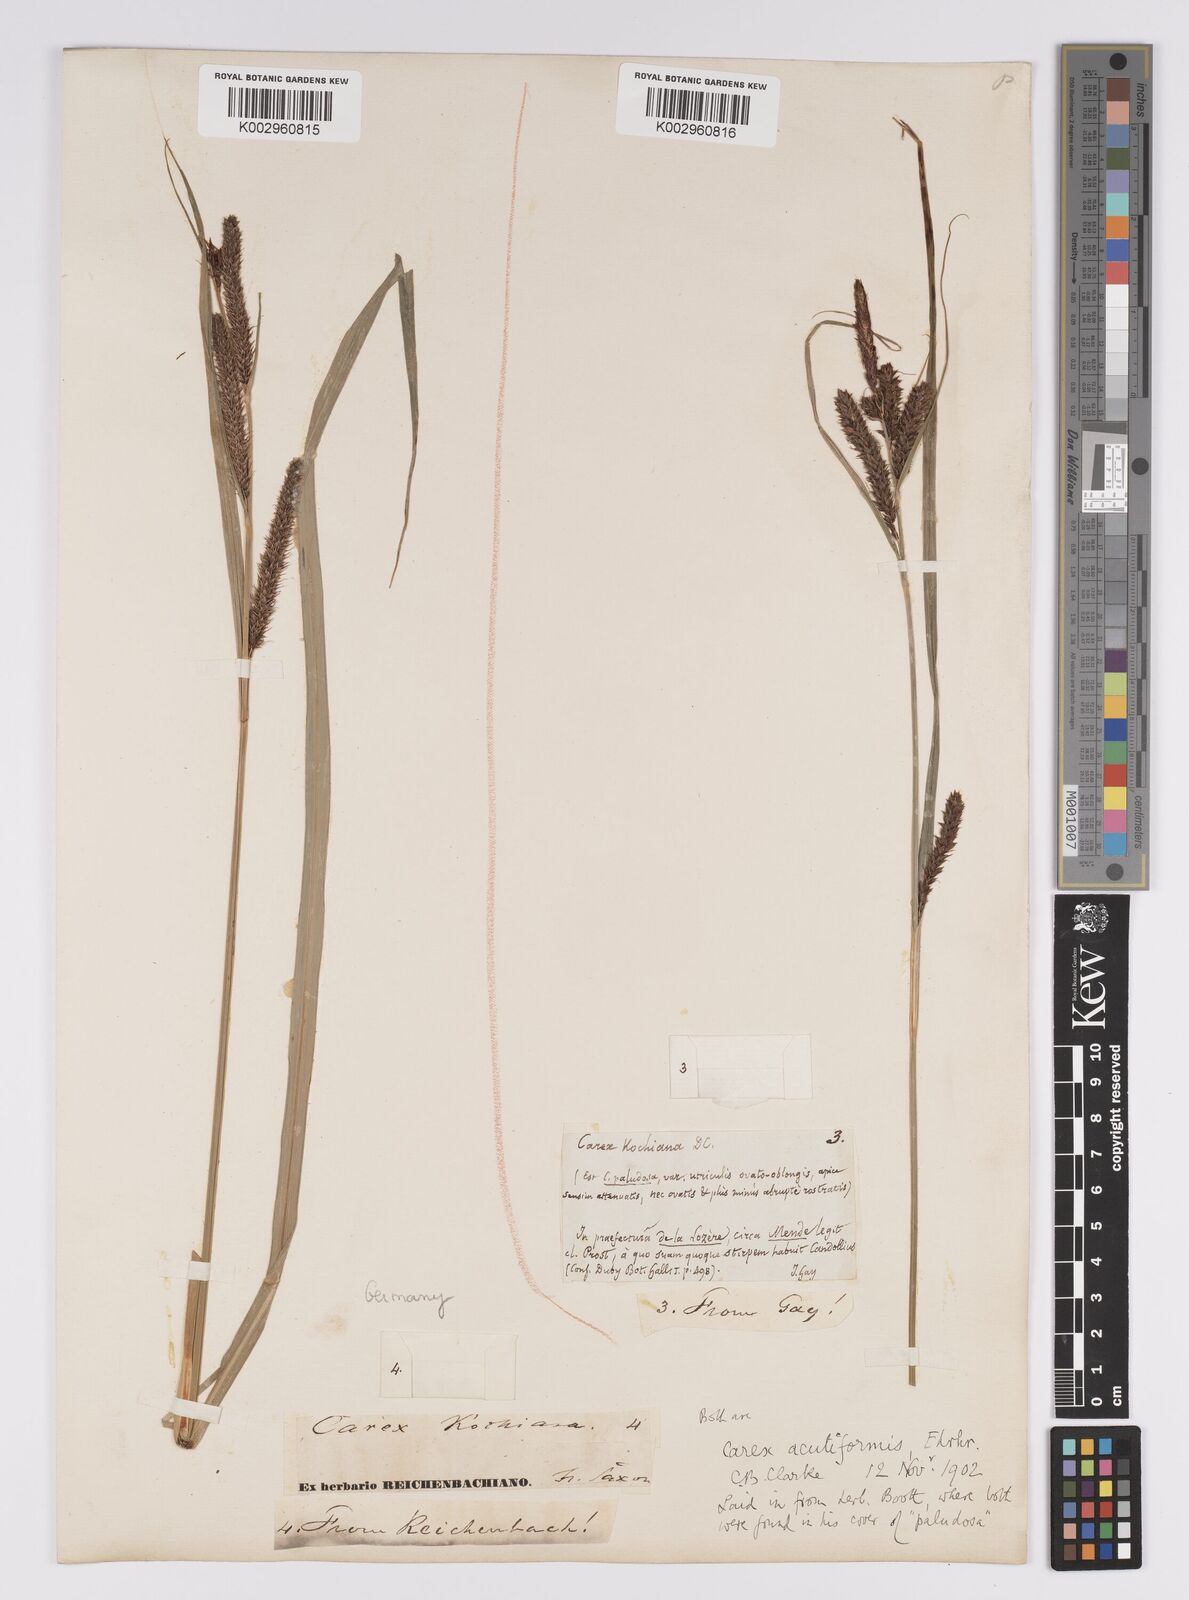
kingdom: Plantae
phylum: Tracheophyta
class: Liliopsida
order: Poales
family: Cyperaceae
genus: Carex
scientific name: Carex acutiformis
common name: Lesser pond-sedge
